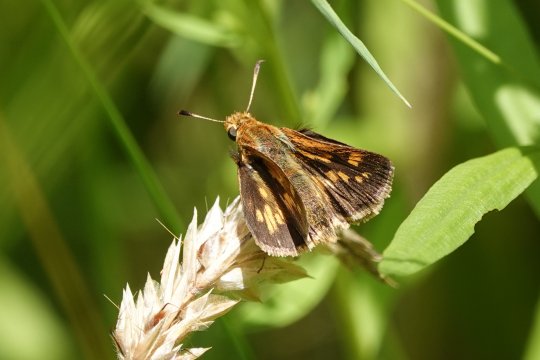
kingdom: Animalia
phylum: Arthropoda
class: Insecta
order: Lepidoptera
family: Hesperiidae
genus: Polites
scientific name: Polites coras
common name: Peck's Skipper
